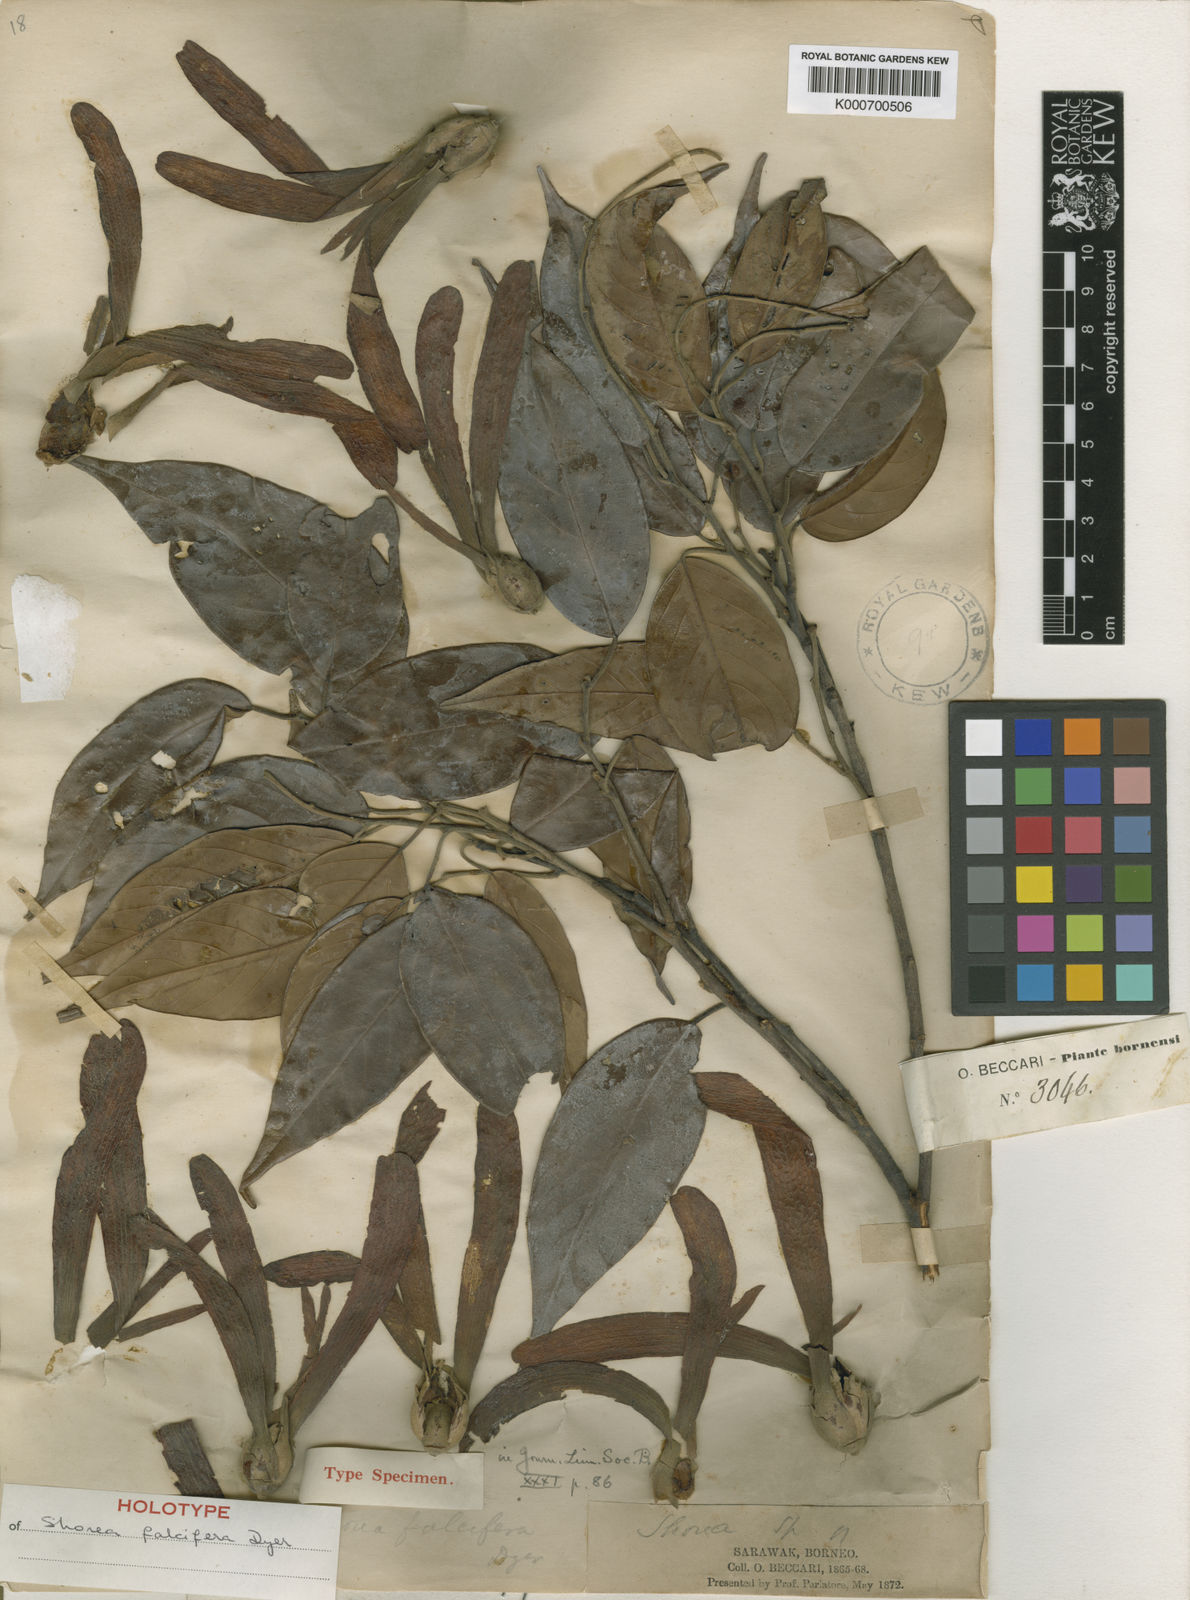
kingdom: Plantae
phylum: Tracheophyta
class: Magnoliopsida
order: Malvales
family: Dipterocarpaceae
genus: Shorea
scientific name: Shorea falcifera
